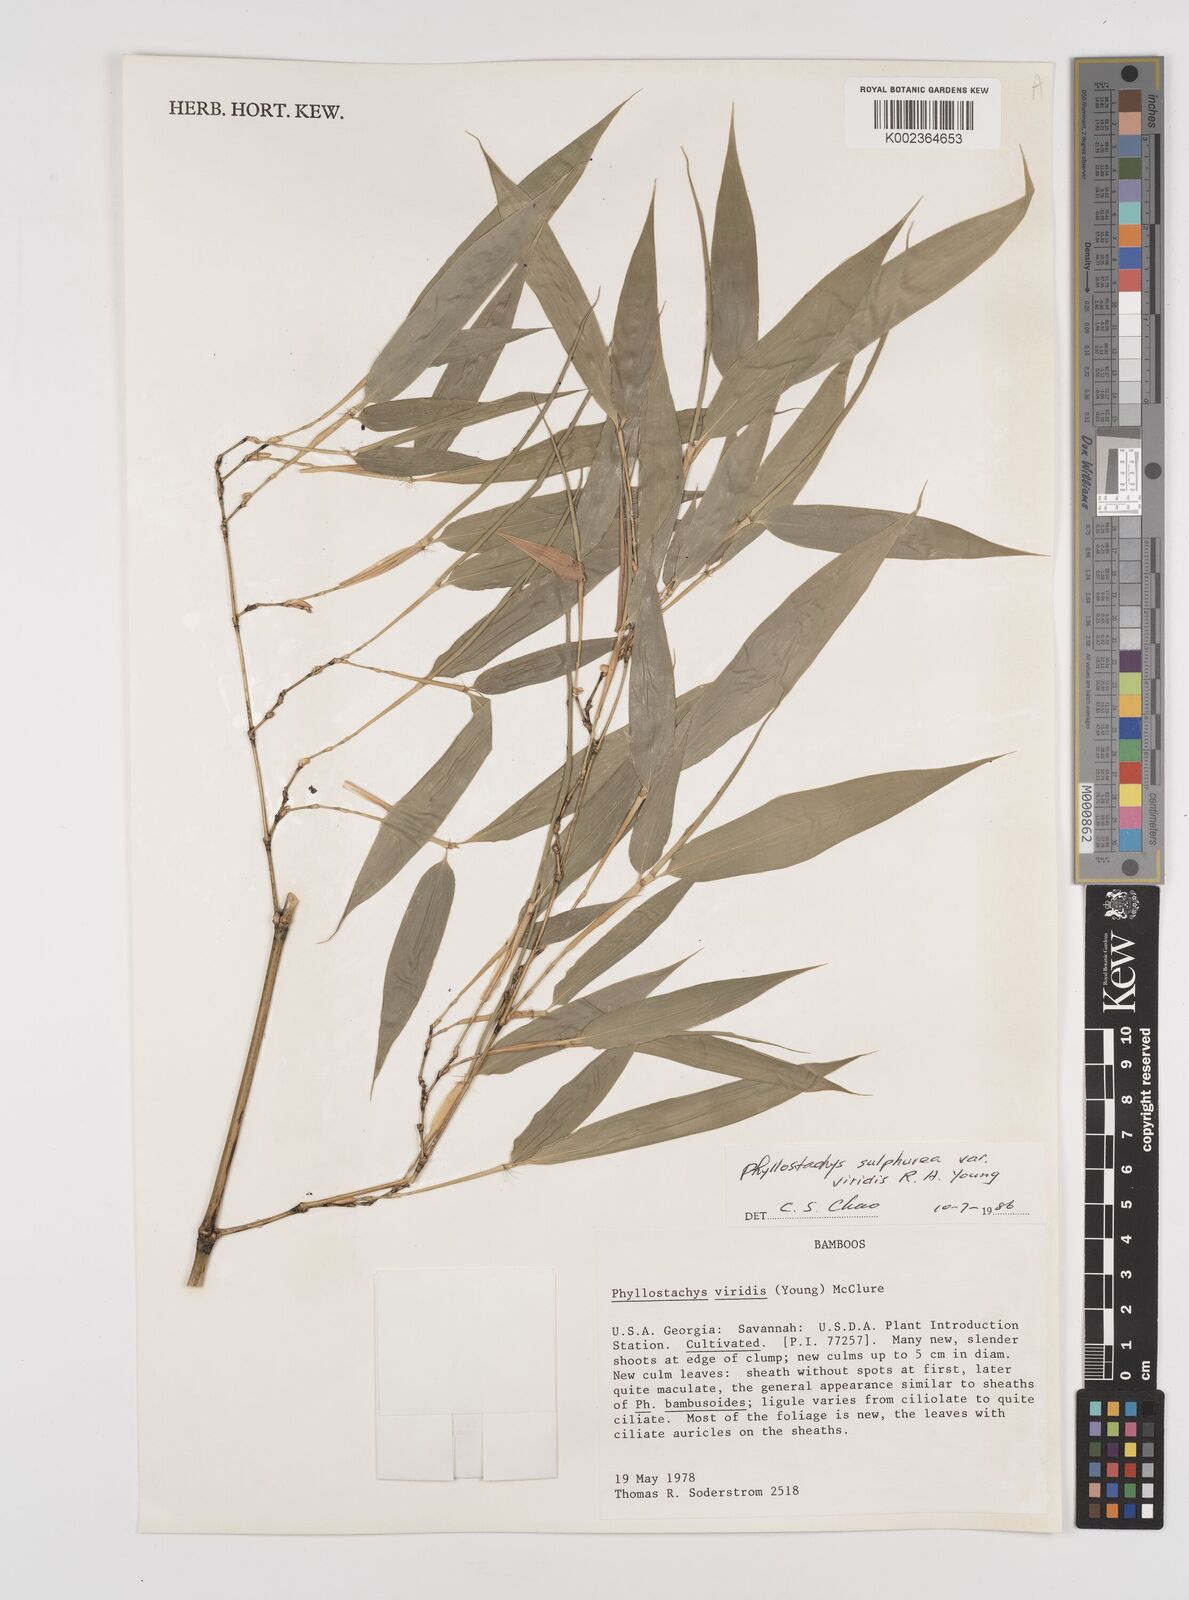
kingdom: Plantae
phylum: Tracheophyta
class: Liliopsida
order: Poales
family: Poaceae
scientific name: Poaceae
